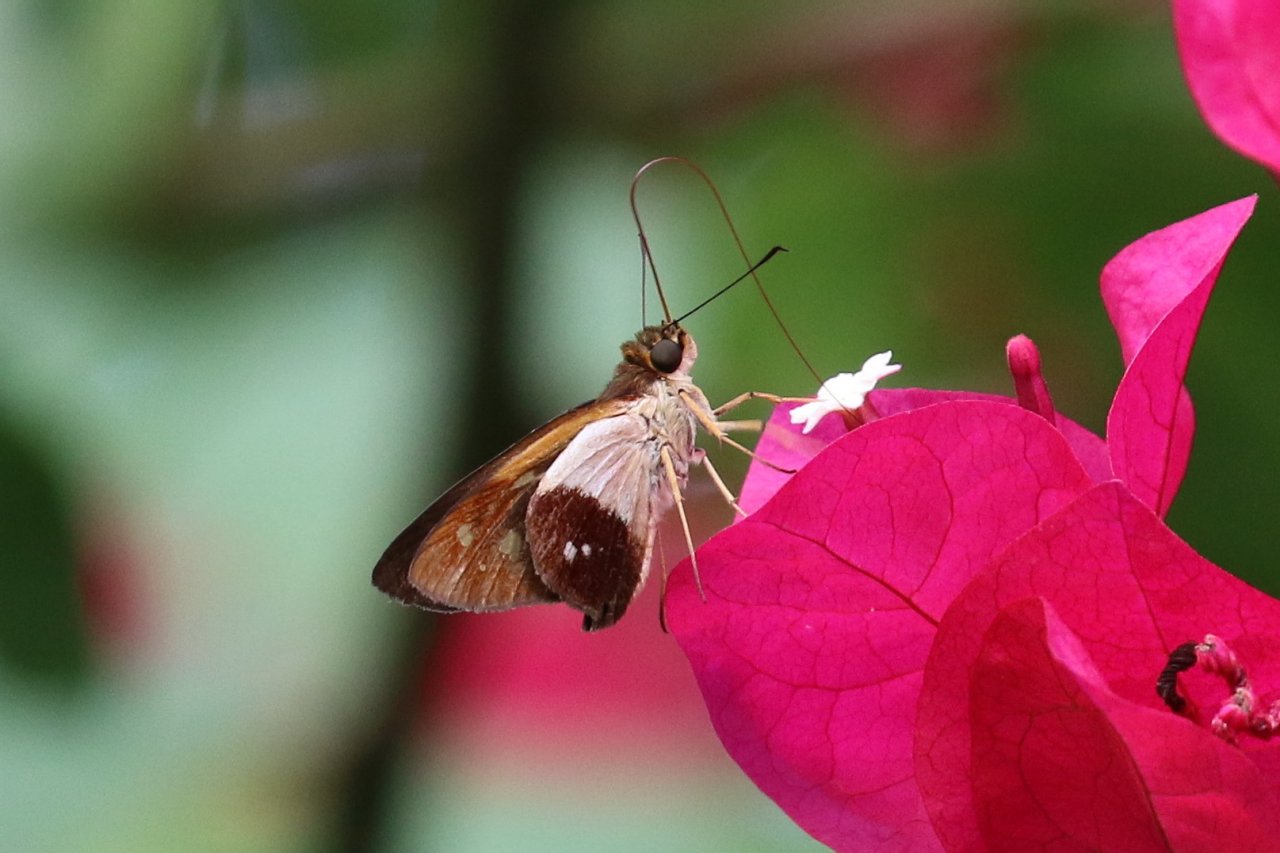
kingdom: Animalia
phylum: Arthropoda
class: Insecta
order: Lepidoptera
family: Hesperiidae
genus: Saliana
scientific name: Saliana esperi
